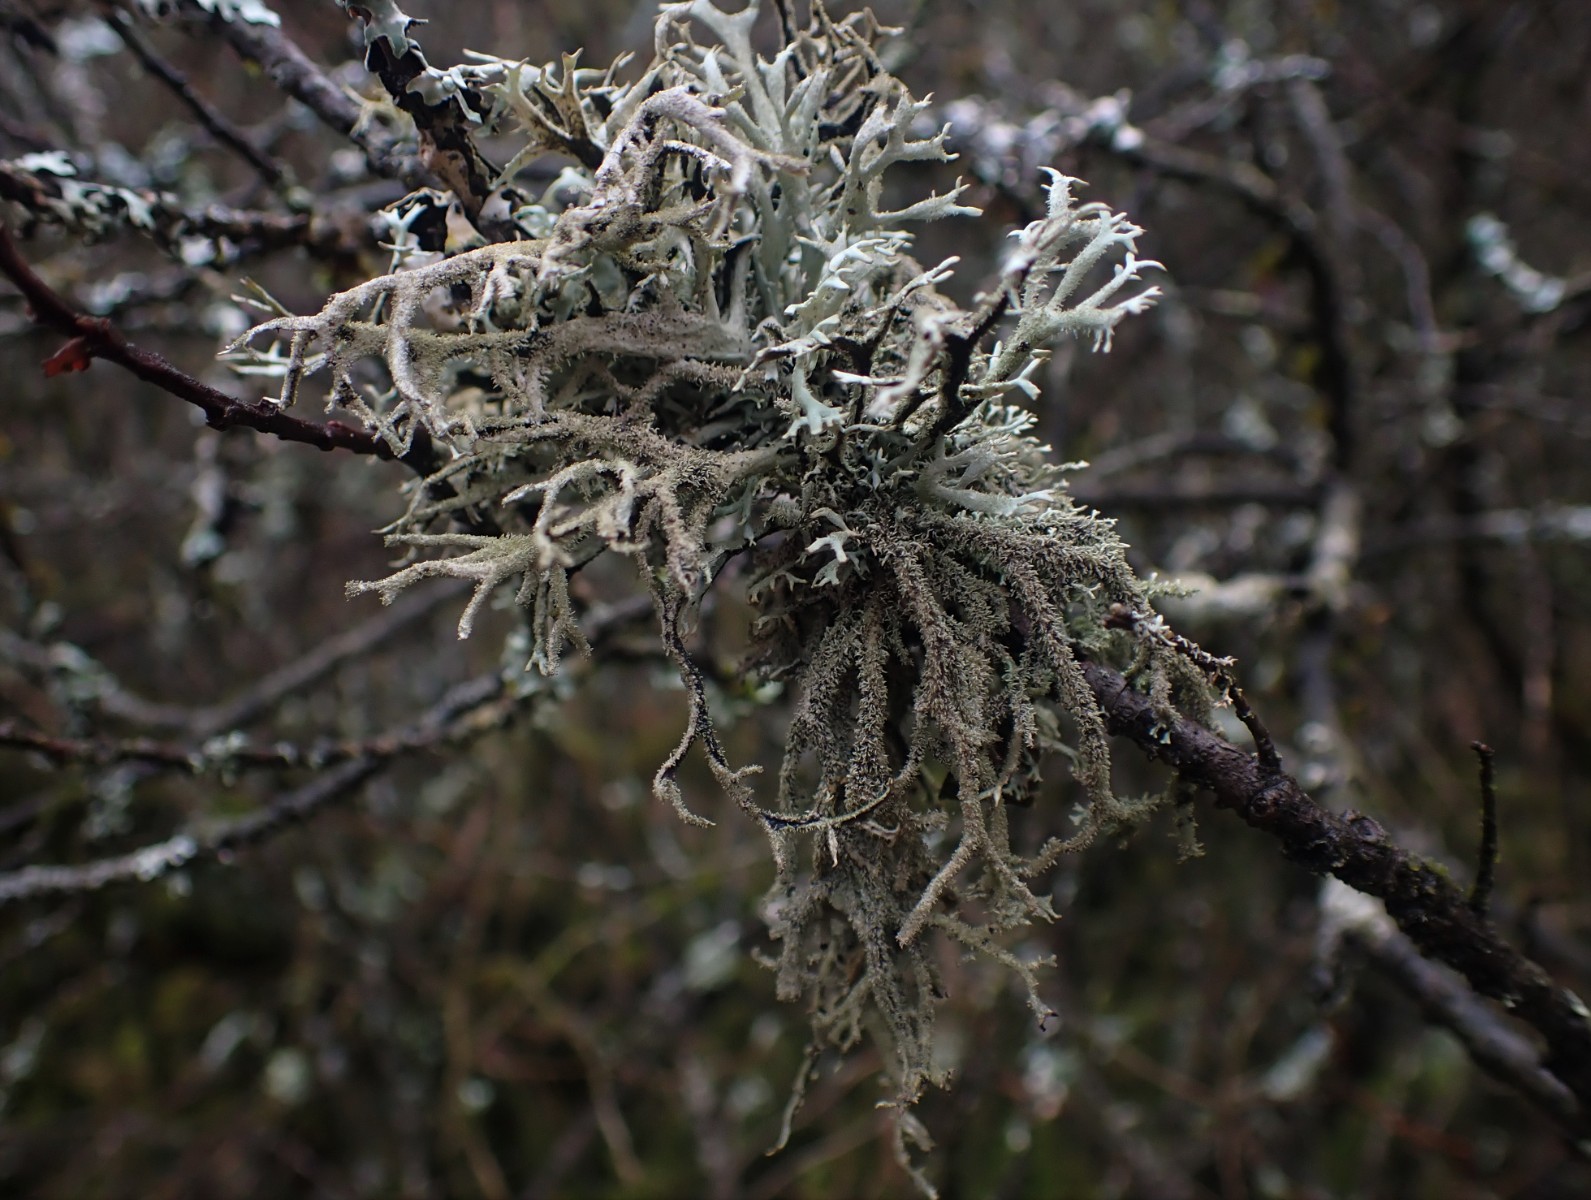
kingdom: Fungi
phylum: Ascomycota
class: Lecanoromycetes
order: Lecanorales
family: Parmeliaceae
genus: Pseudevernia
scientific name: Pseudevernia furfuracea
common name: grå fyrrelav
